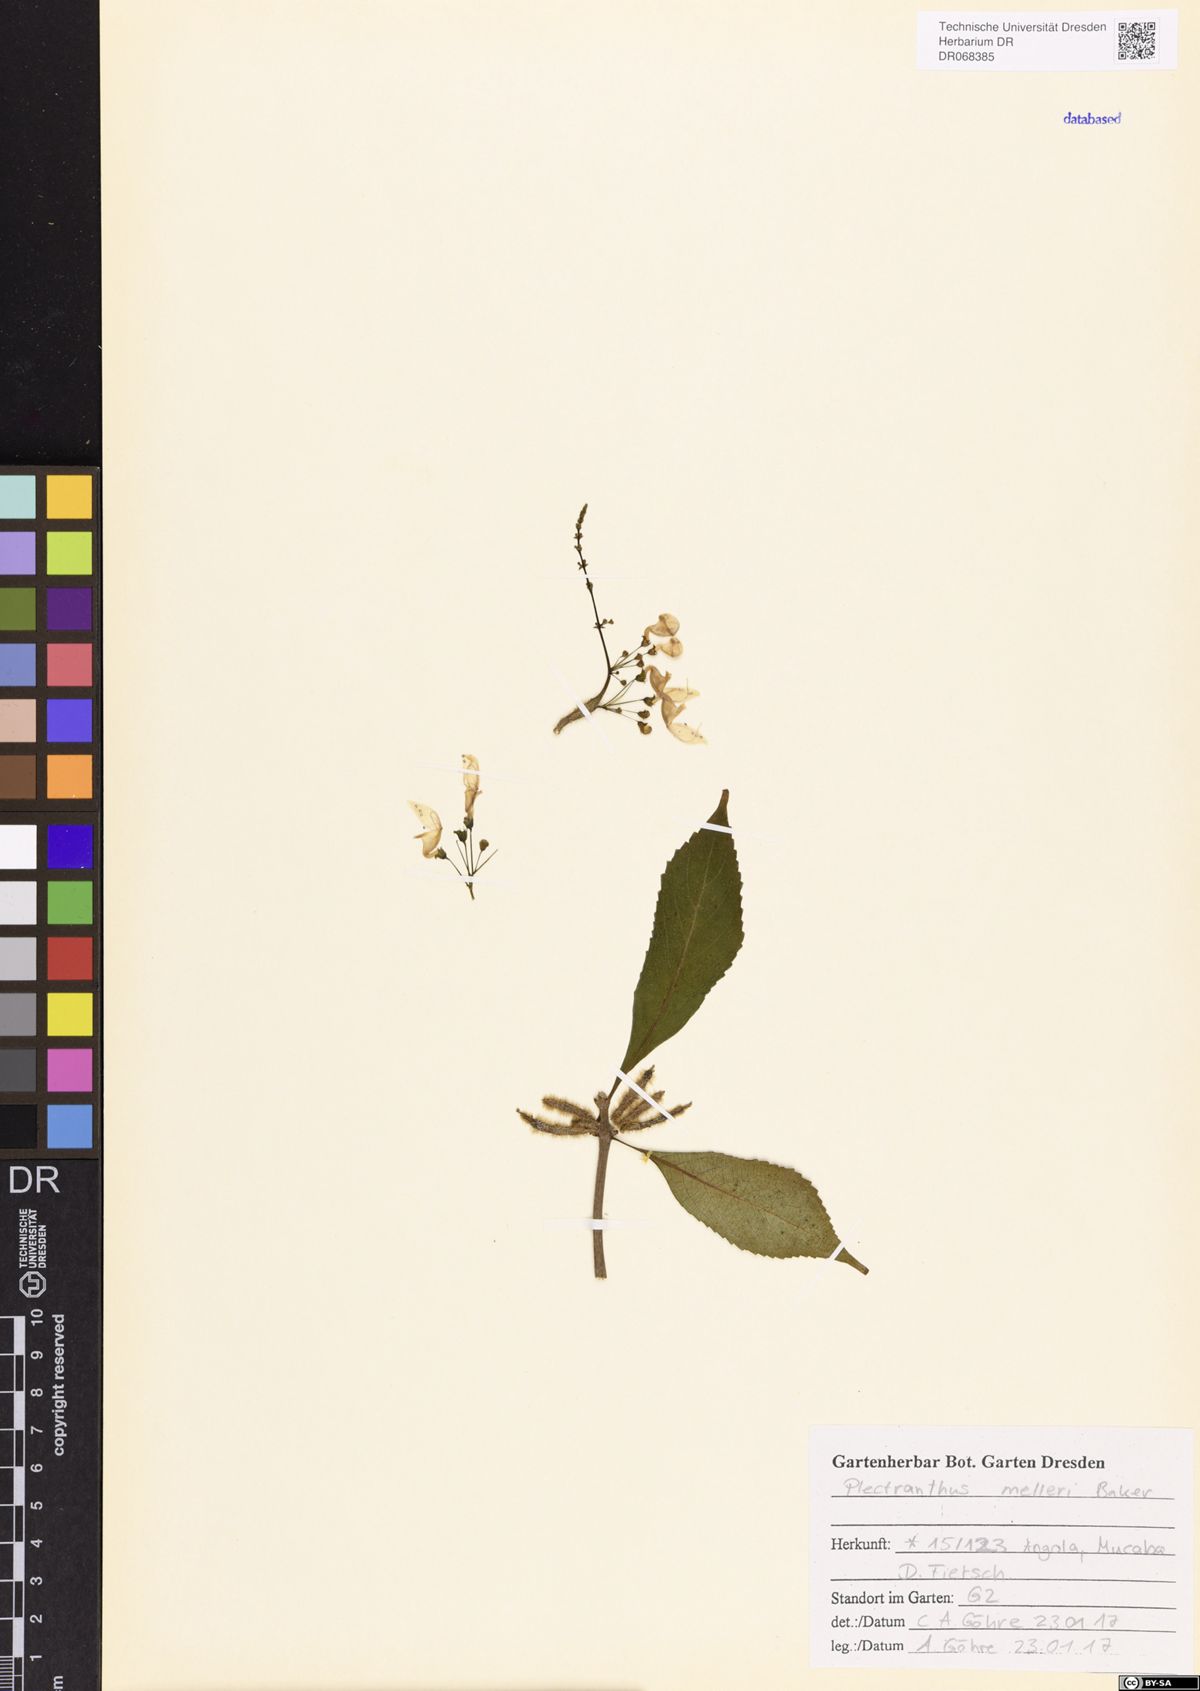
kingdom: Plantae
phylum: Tracheophyta
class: Magnoliopsida
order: Lamiales
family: Lamiaceae
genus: Coleus
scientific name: Coleus melleri
